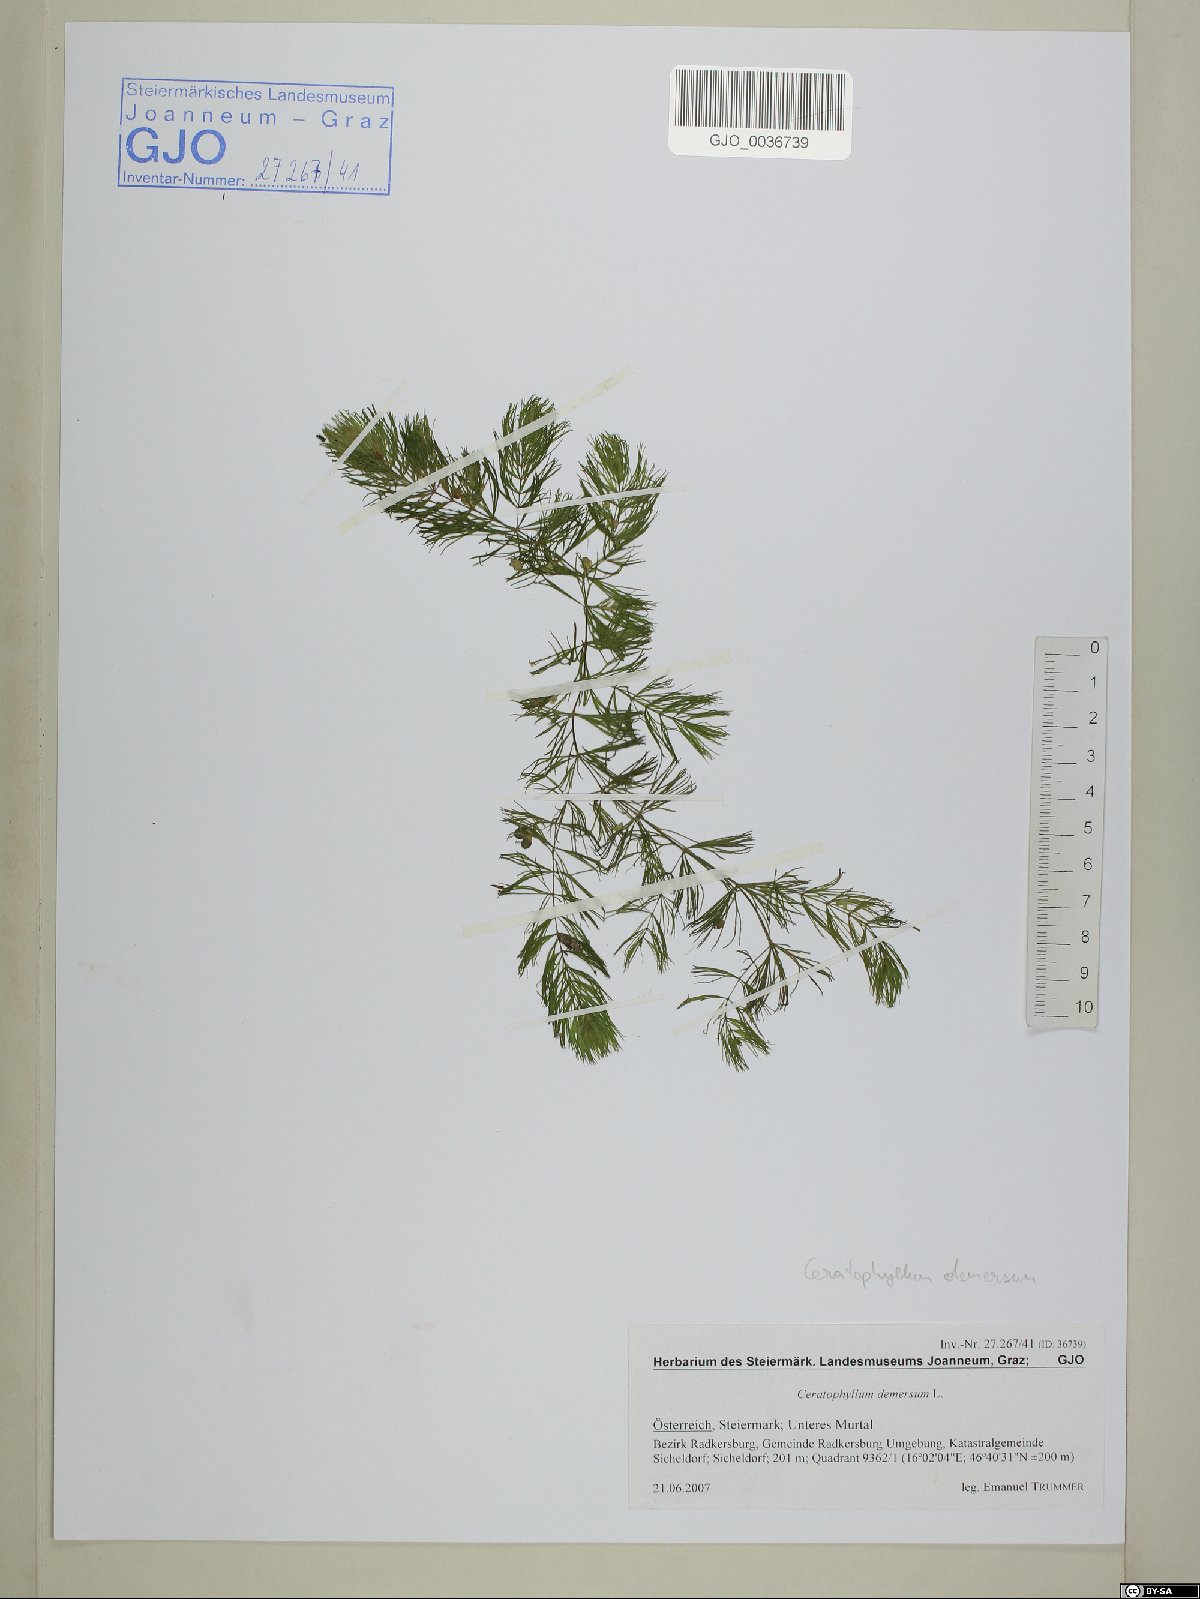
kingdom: Plantae
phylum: Tracheophyta
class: Magnoliopsida
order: Ceratophyllales
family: Ceratophyllaceae
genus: Ceratophyllum
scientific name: Ceratophyllum demersum
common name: Rigid hornwort
